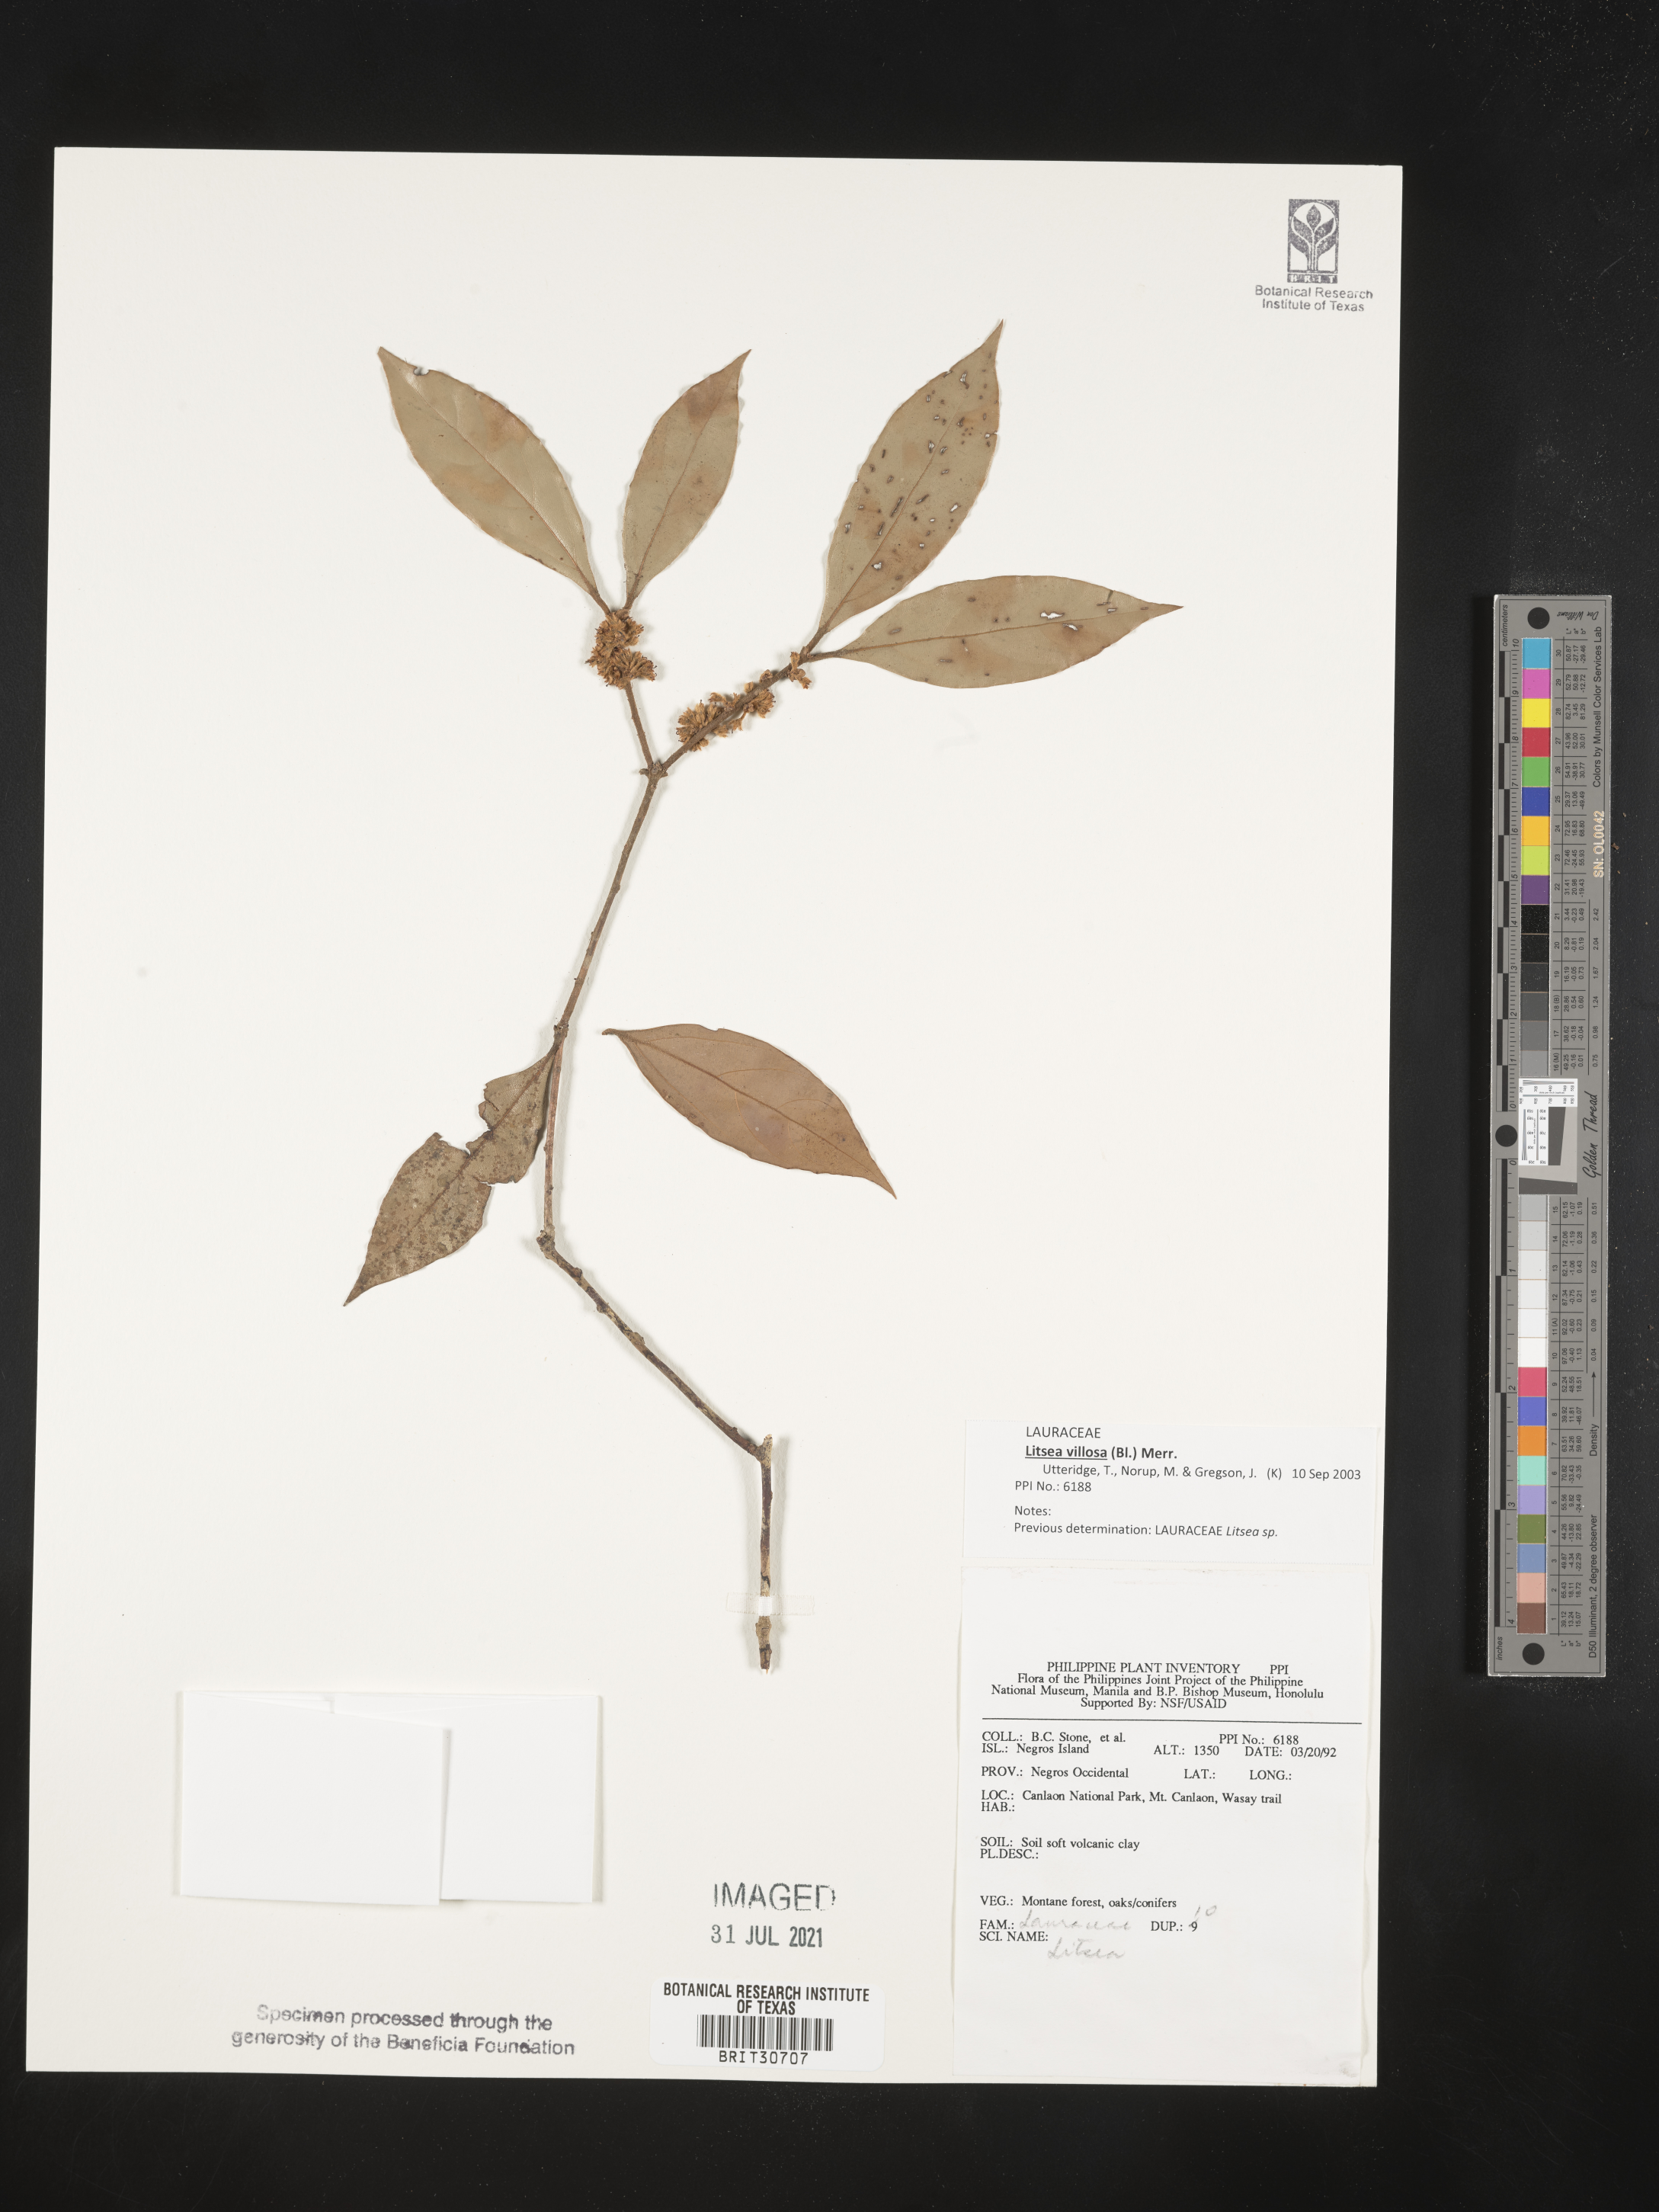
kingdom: Plantae
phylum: Tracheophyta
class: Magnoliopsida
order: Laurales
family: Lauraceae
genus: Litsea
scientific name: Litsea
